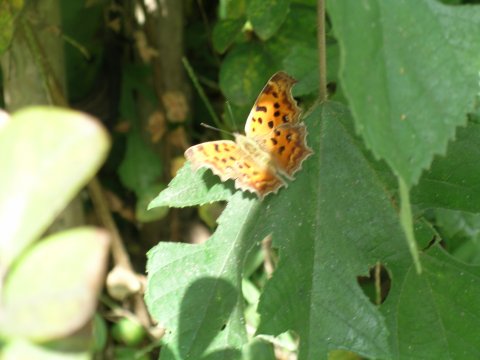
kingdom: Animalia
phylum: Arthropoda
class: Insecta
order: Lepidoptera
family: Nymphalidae
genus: Polygonia
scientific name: Polygonia c-aureum
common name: Asian Comma
